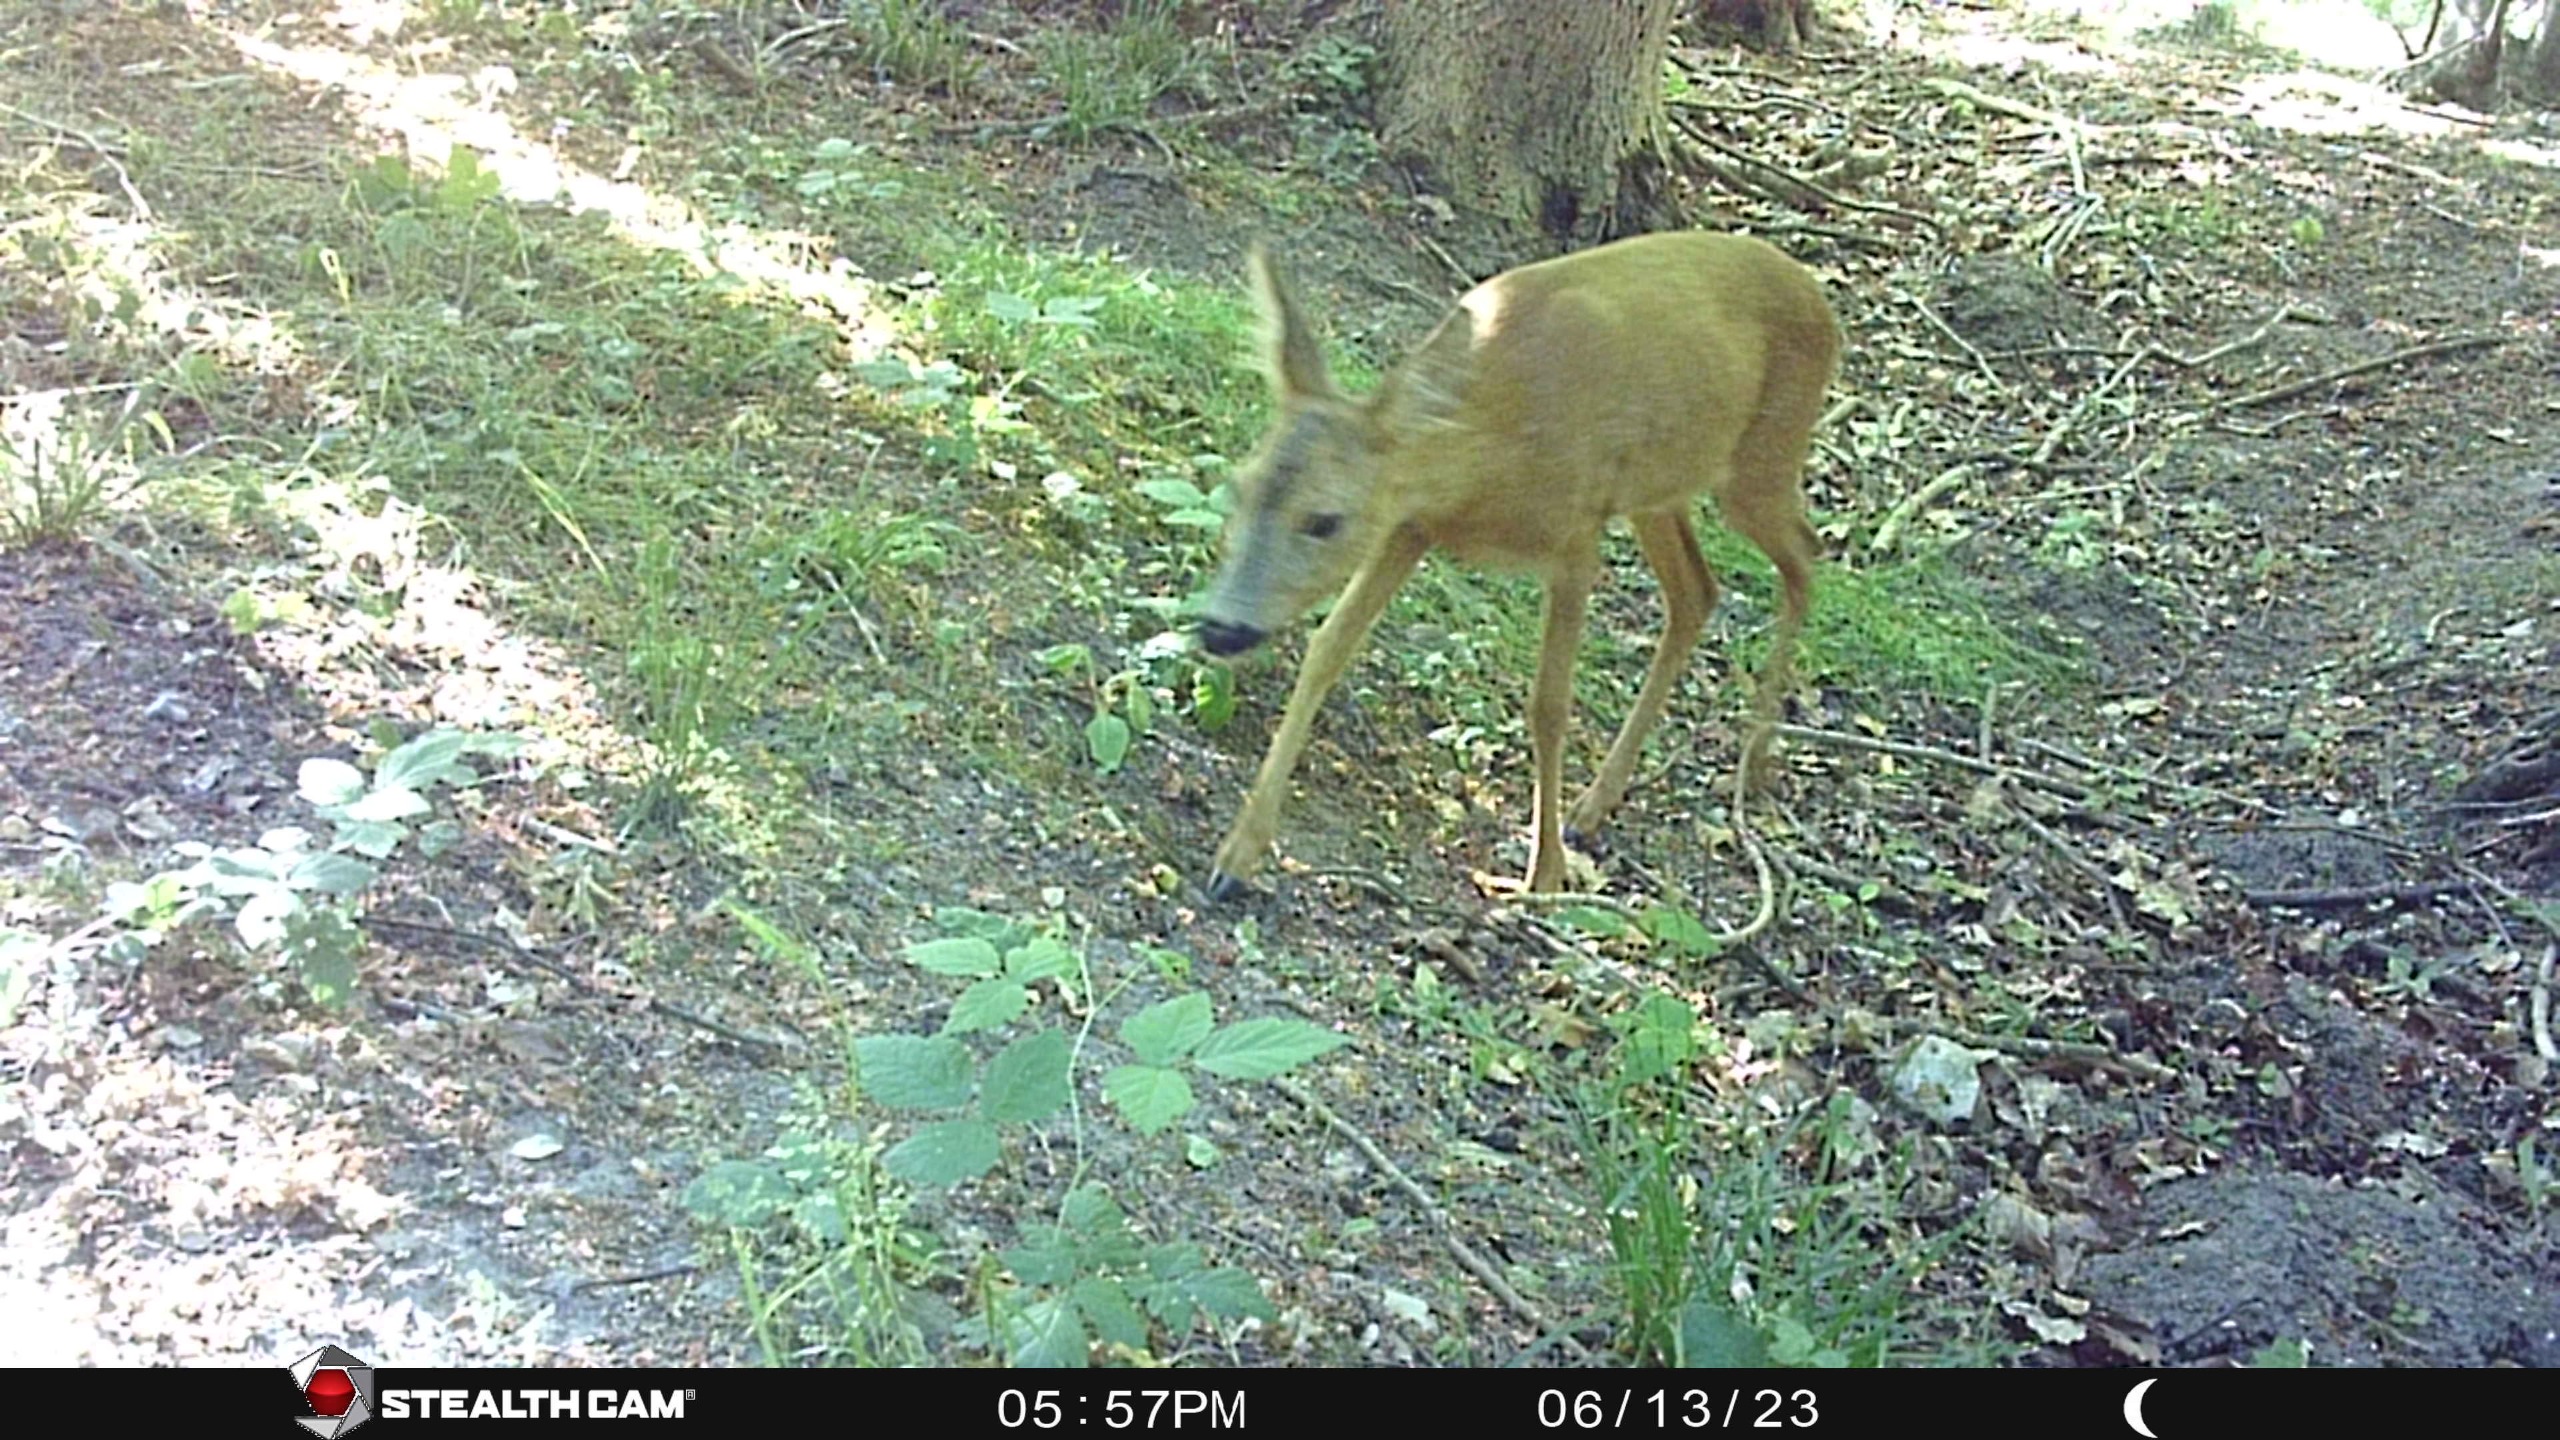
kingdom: Animalia
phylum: Chordata
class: Mammalia
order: Artiodactyla
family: Cervidae
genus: Capreolus
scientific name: Capreolus capreolus
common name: Rådyr
